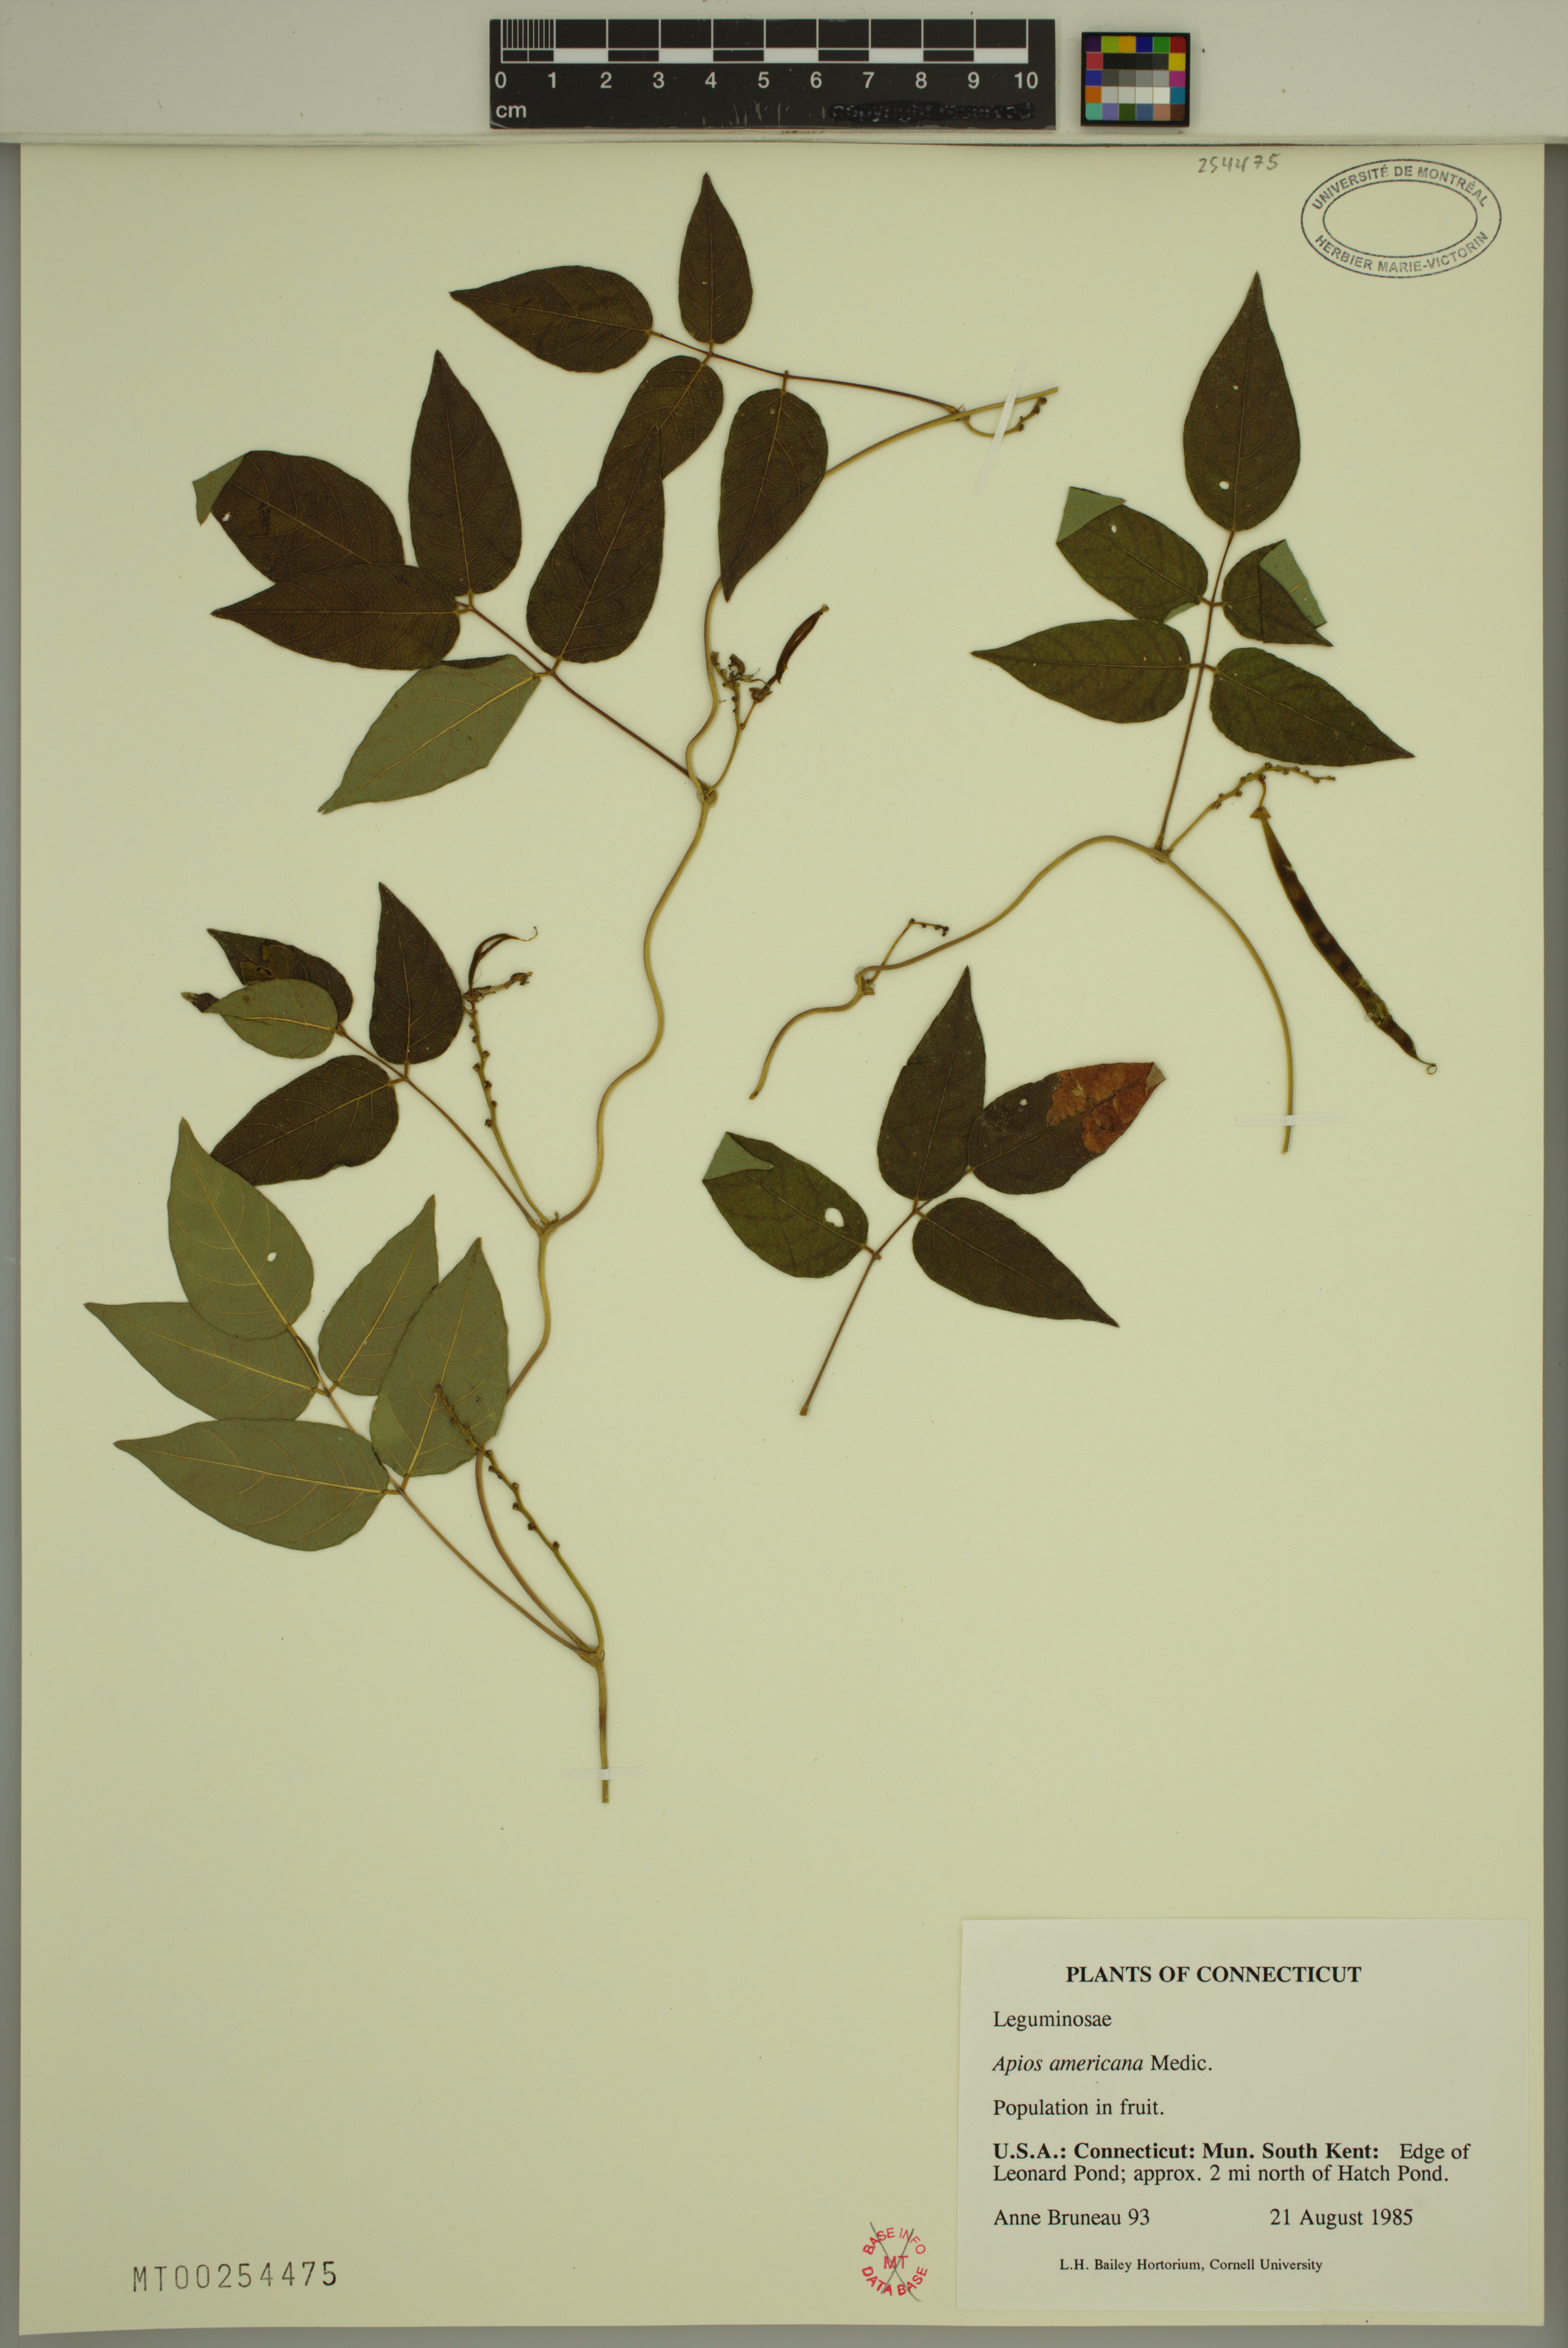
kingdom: Plantae
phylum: Tracheophyta
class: Magnoliopsida
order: Fabales
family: Fabaceae
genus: Apios
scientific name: Apios americana
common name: American potato-bean
